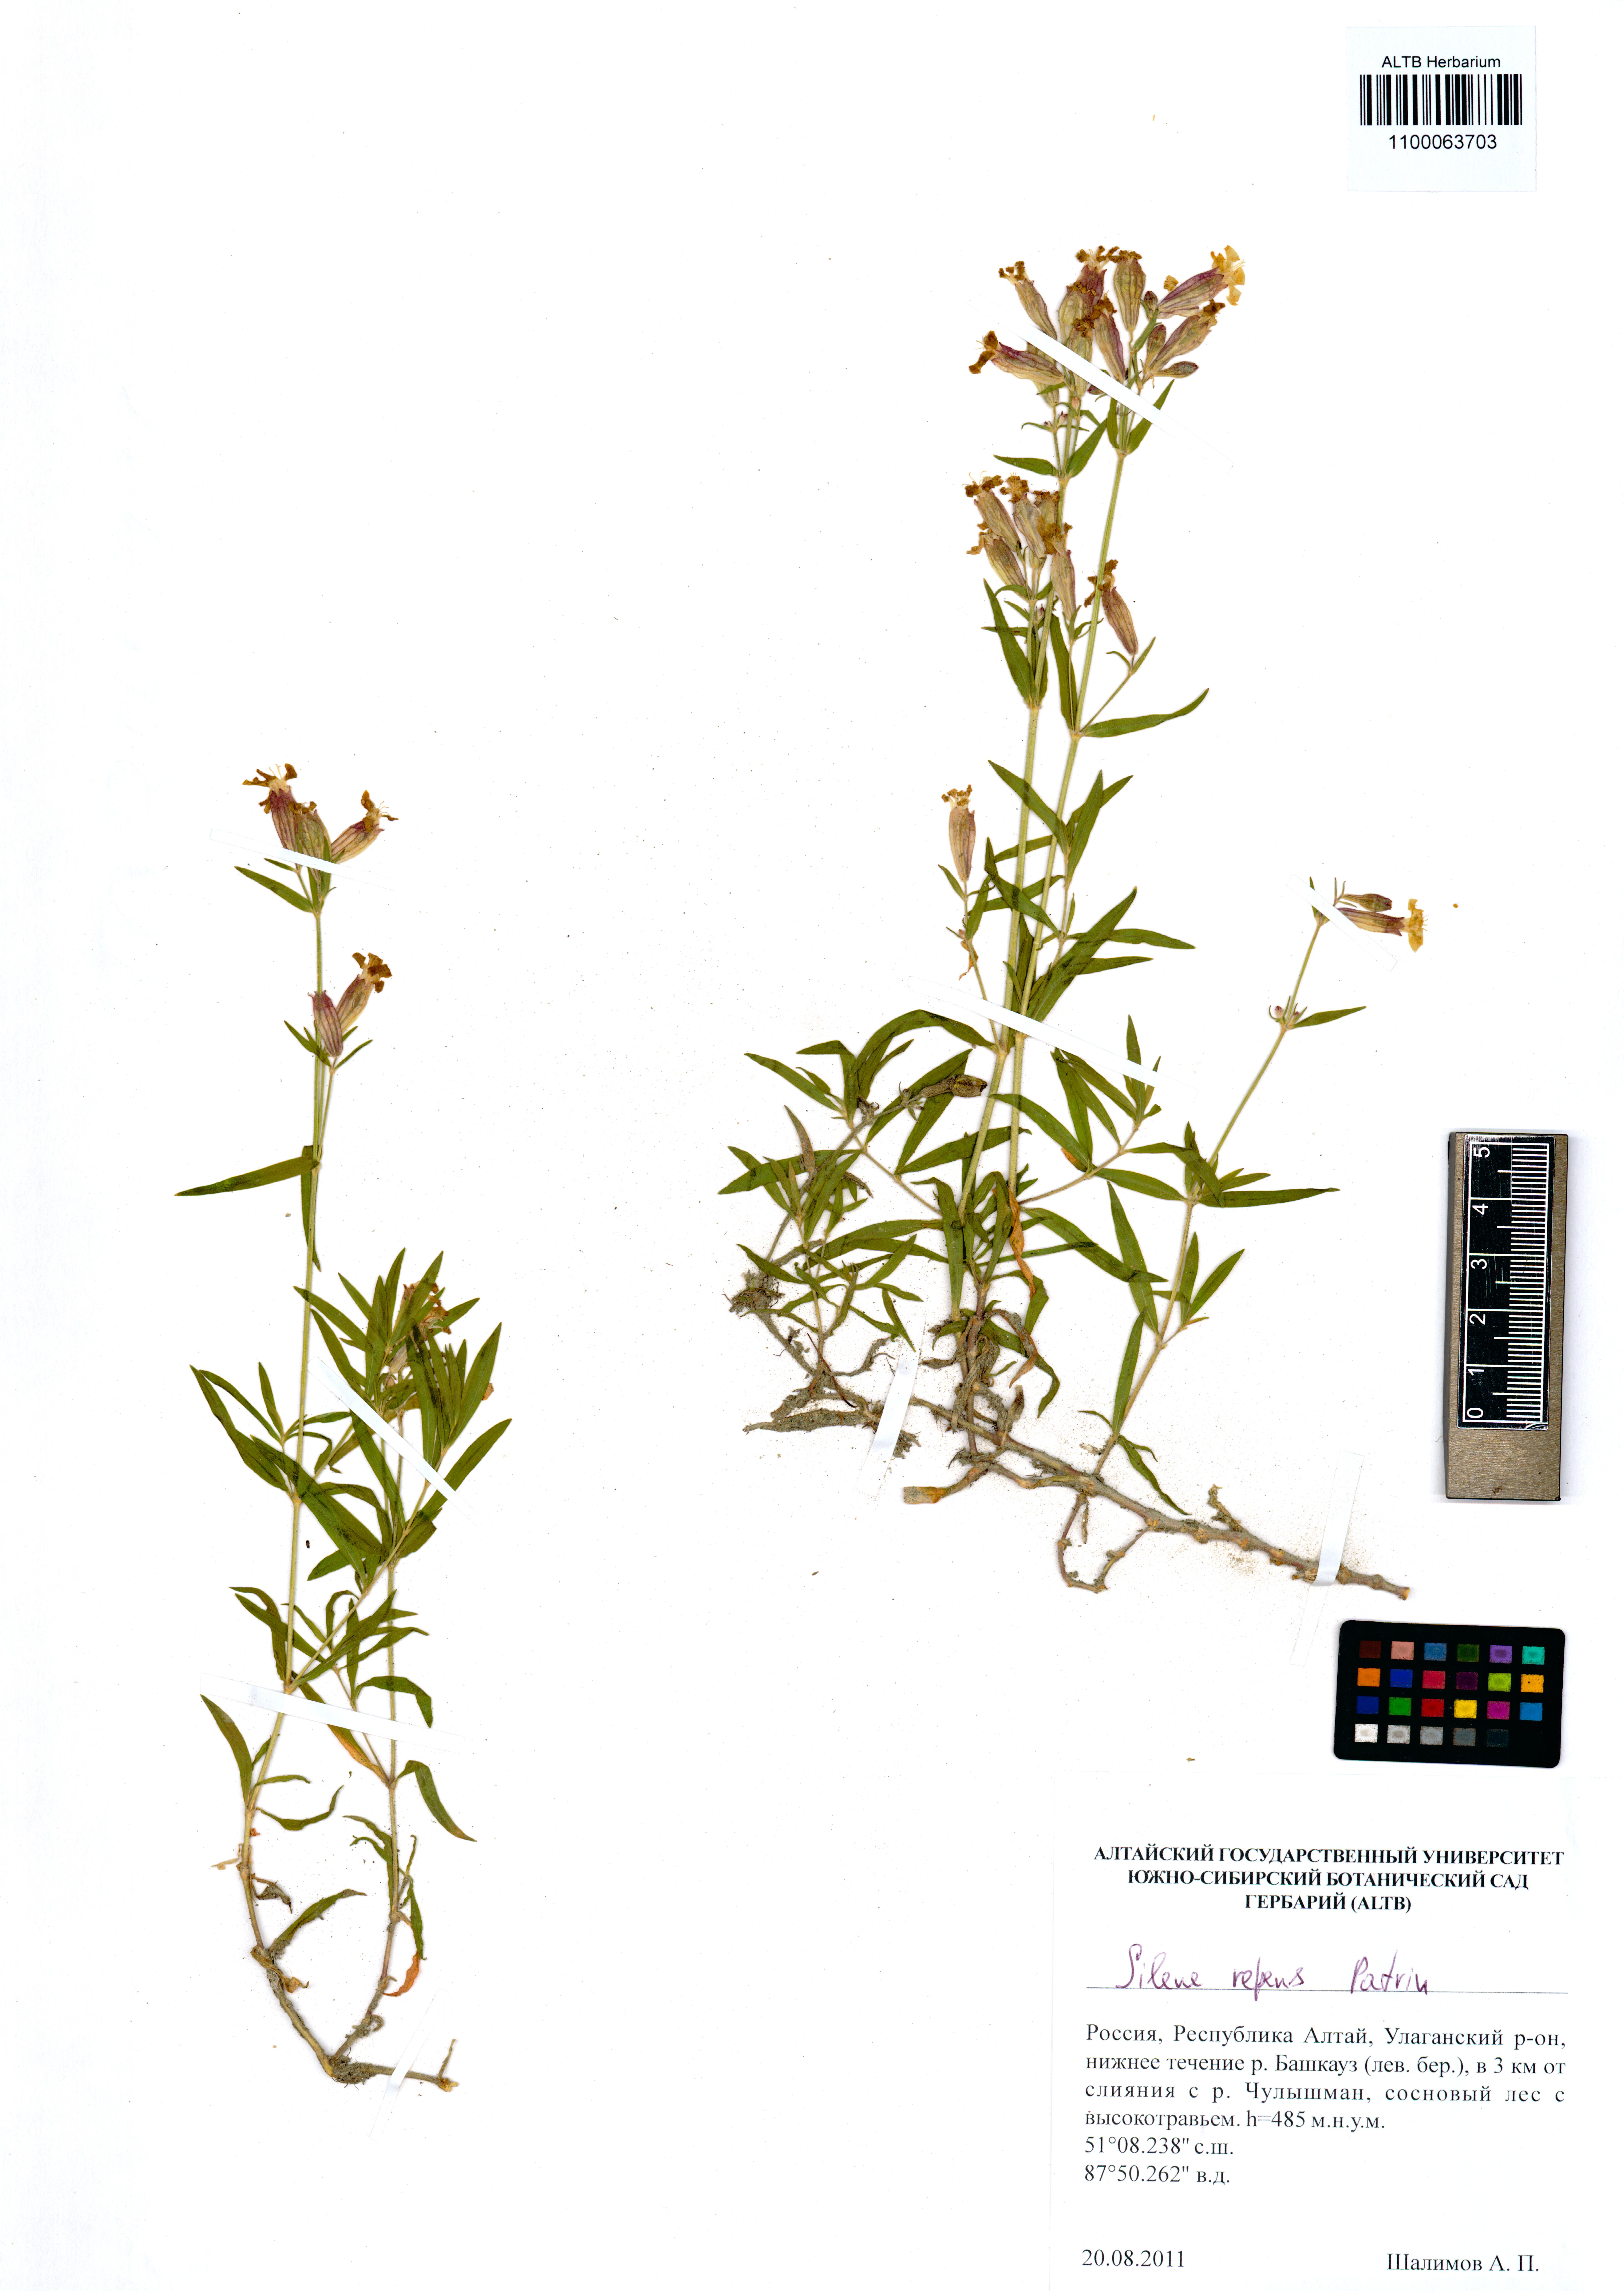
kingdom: Plantae
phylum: Tracheophyta
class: Magnoliopsida
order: Caryophyllales
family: Caryophyllaceae
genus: Silene
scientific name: Silene repens
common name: Pink campion
